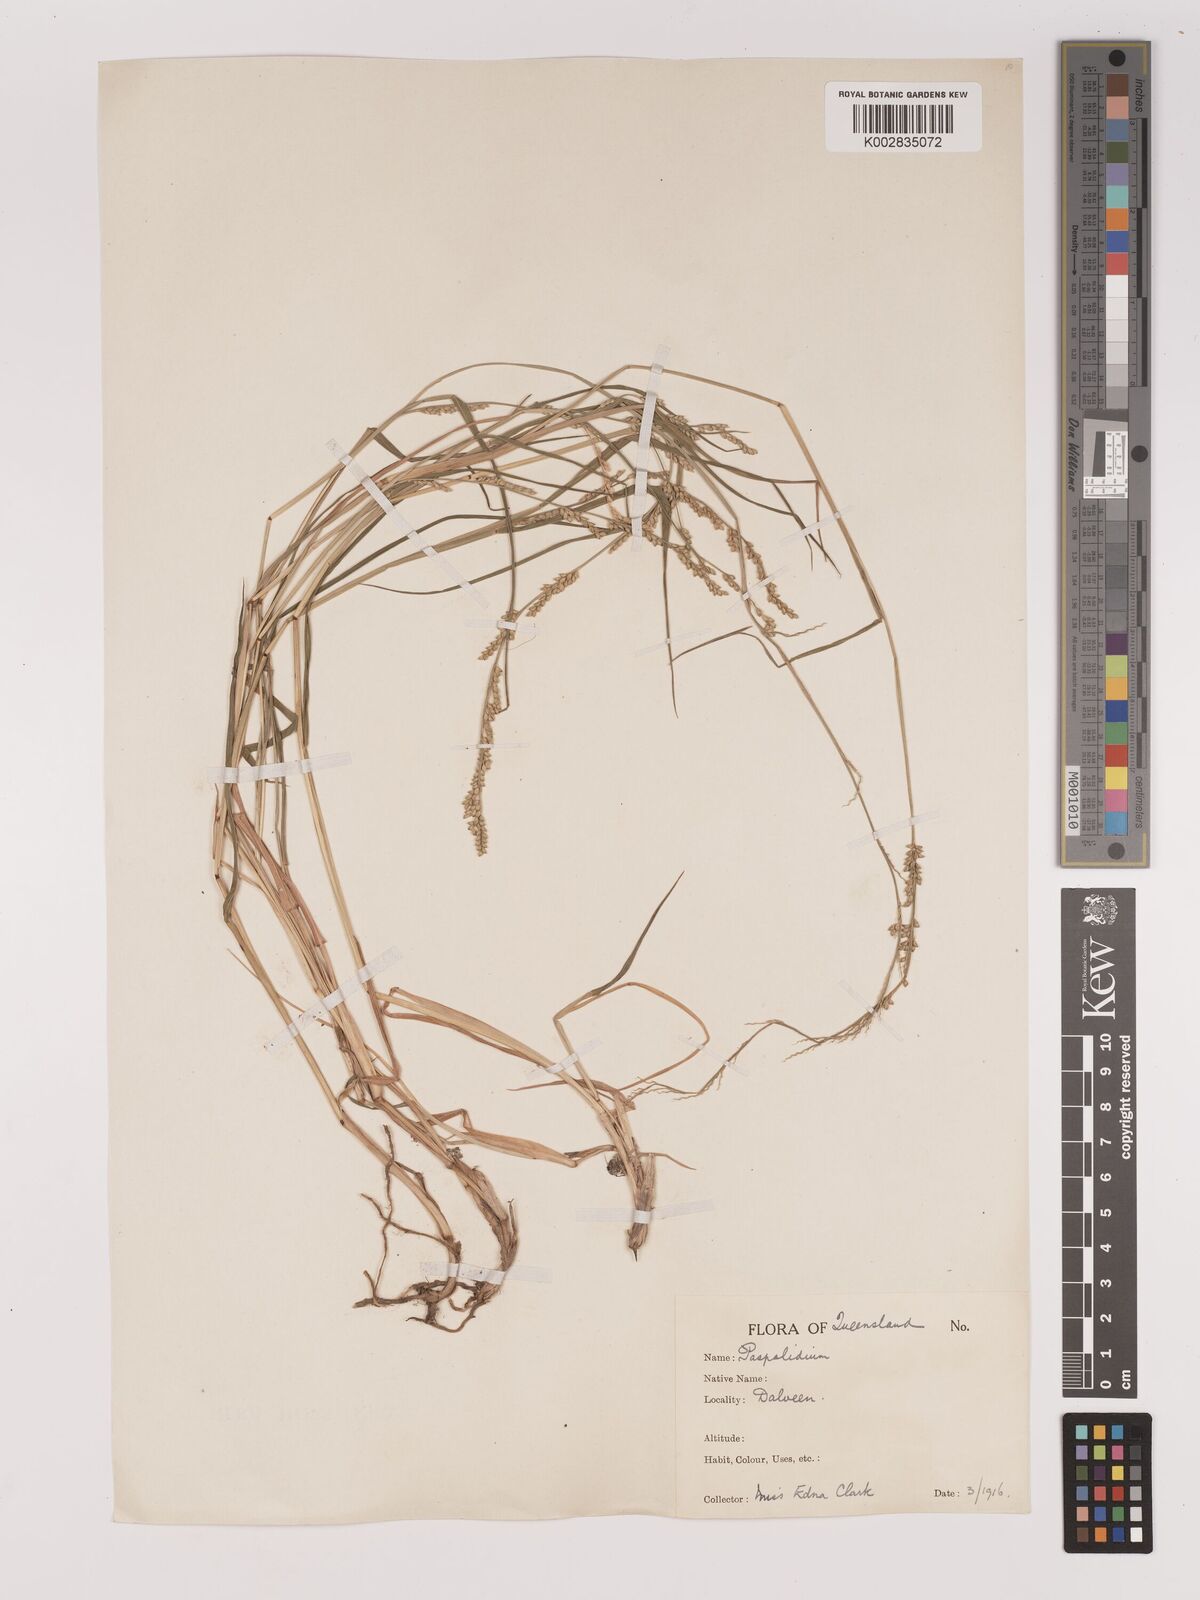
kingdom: Plantae
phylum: Tracheophyta
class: Liliopsida
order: Poales
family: Poaceae
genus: Setaria
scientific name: Setaria
